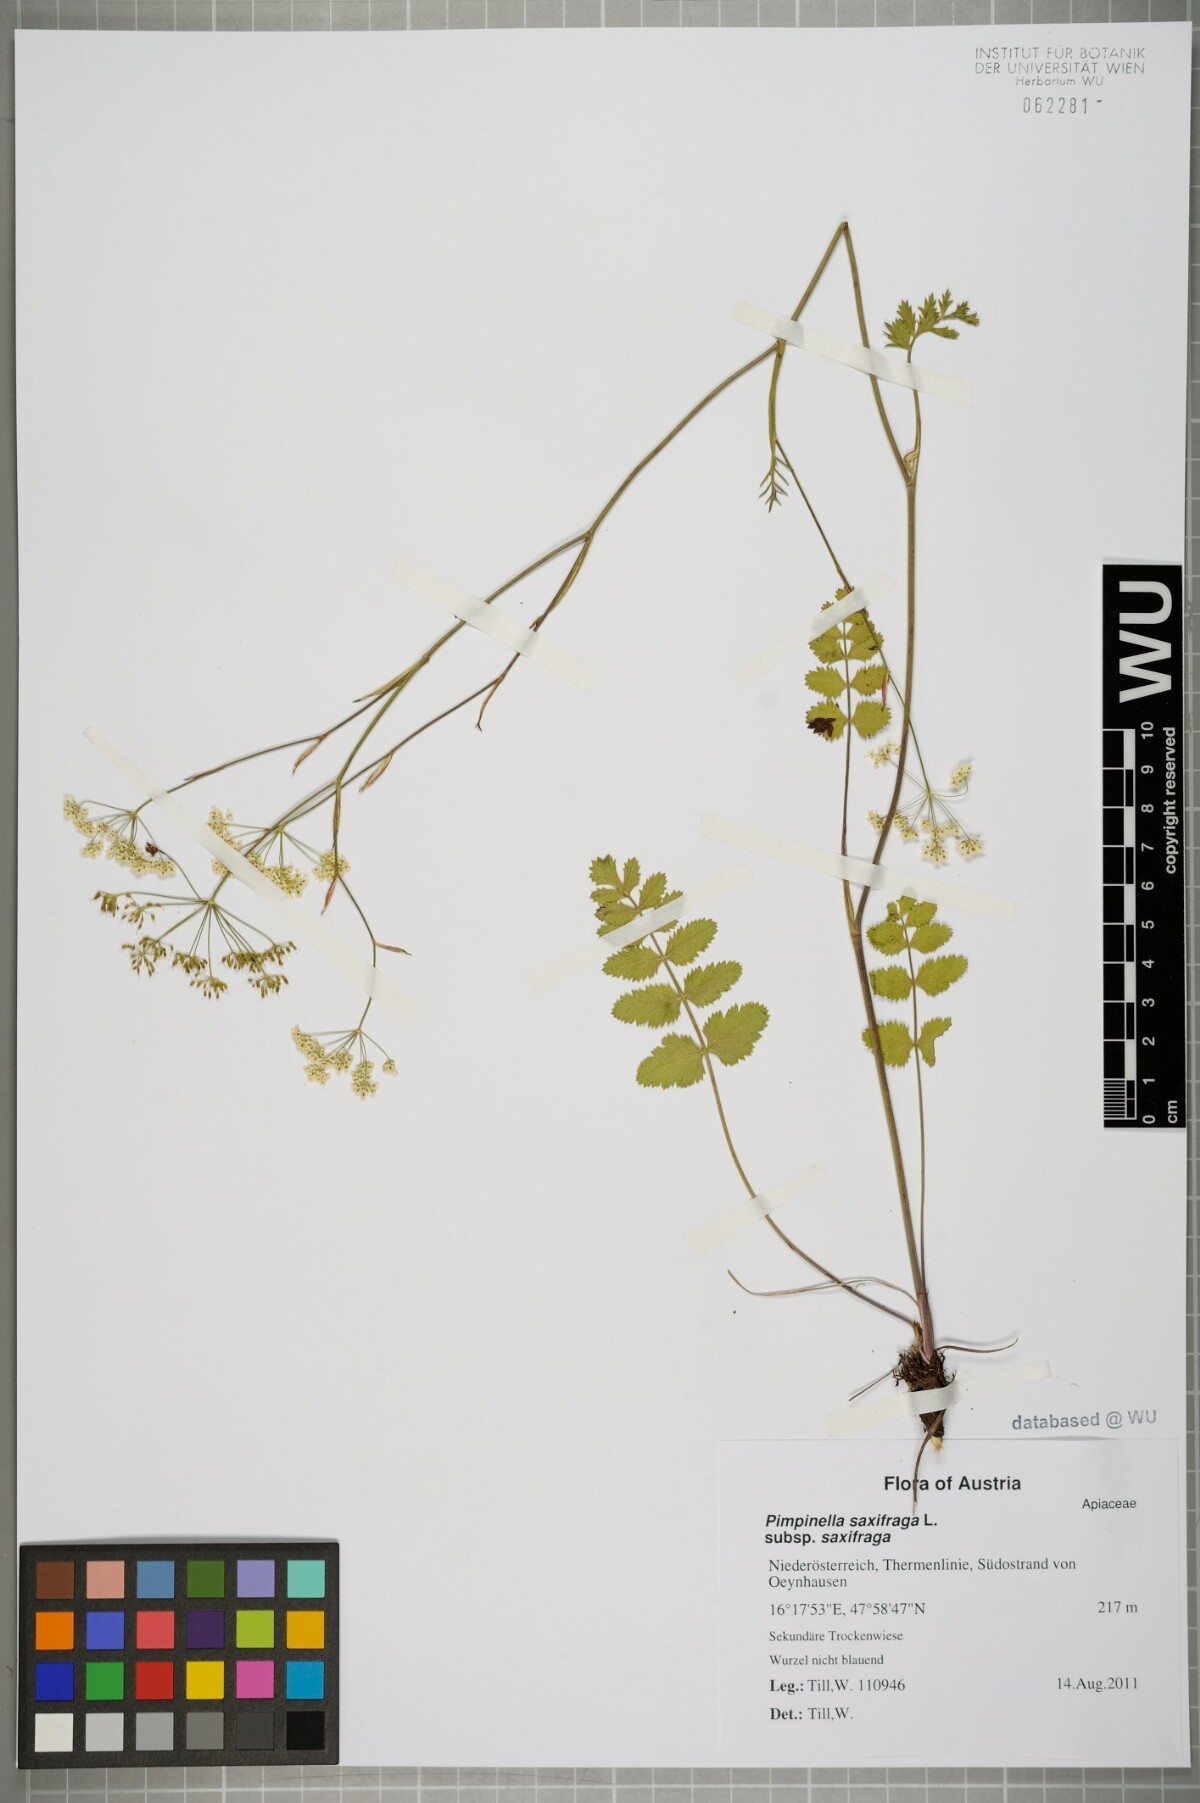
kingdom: Plantae
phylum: Tracheophyta
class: Magnoliopsida
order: Apiales
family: Apiaceae
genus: Pimpinella
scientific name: Pimpinella saxifraga
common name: Burnet-saxifrage
